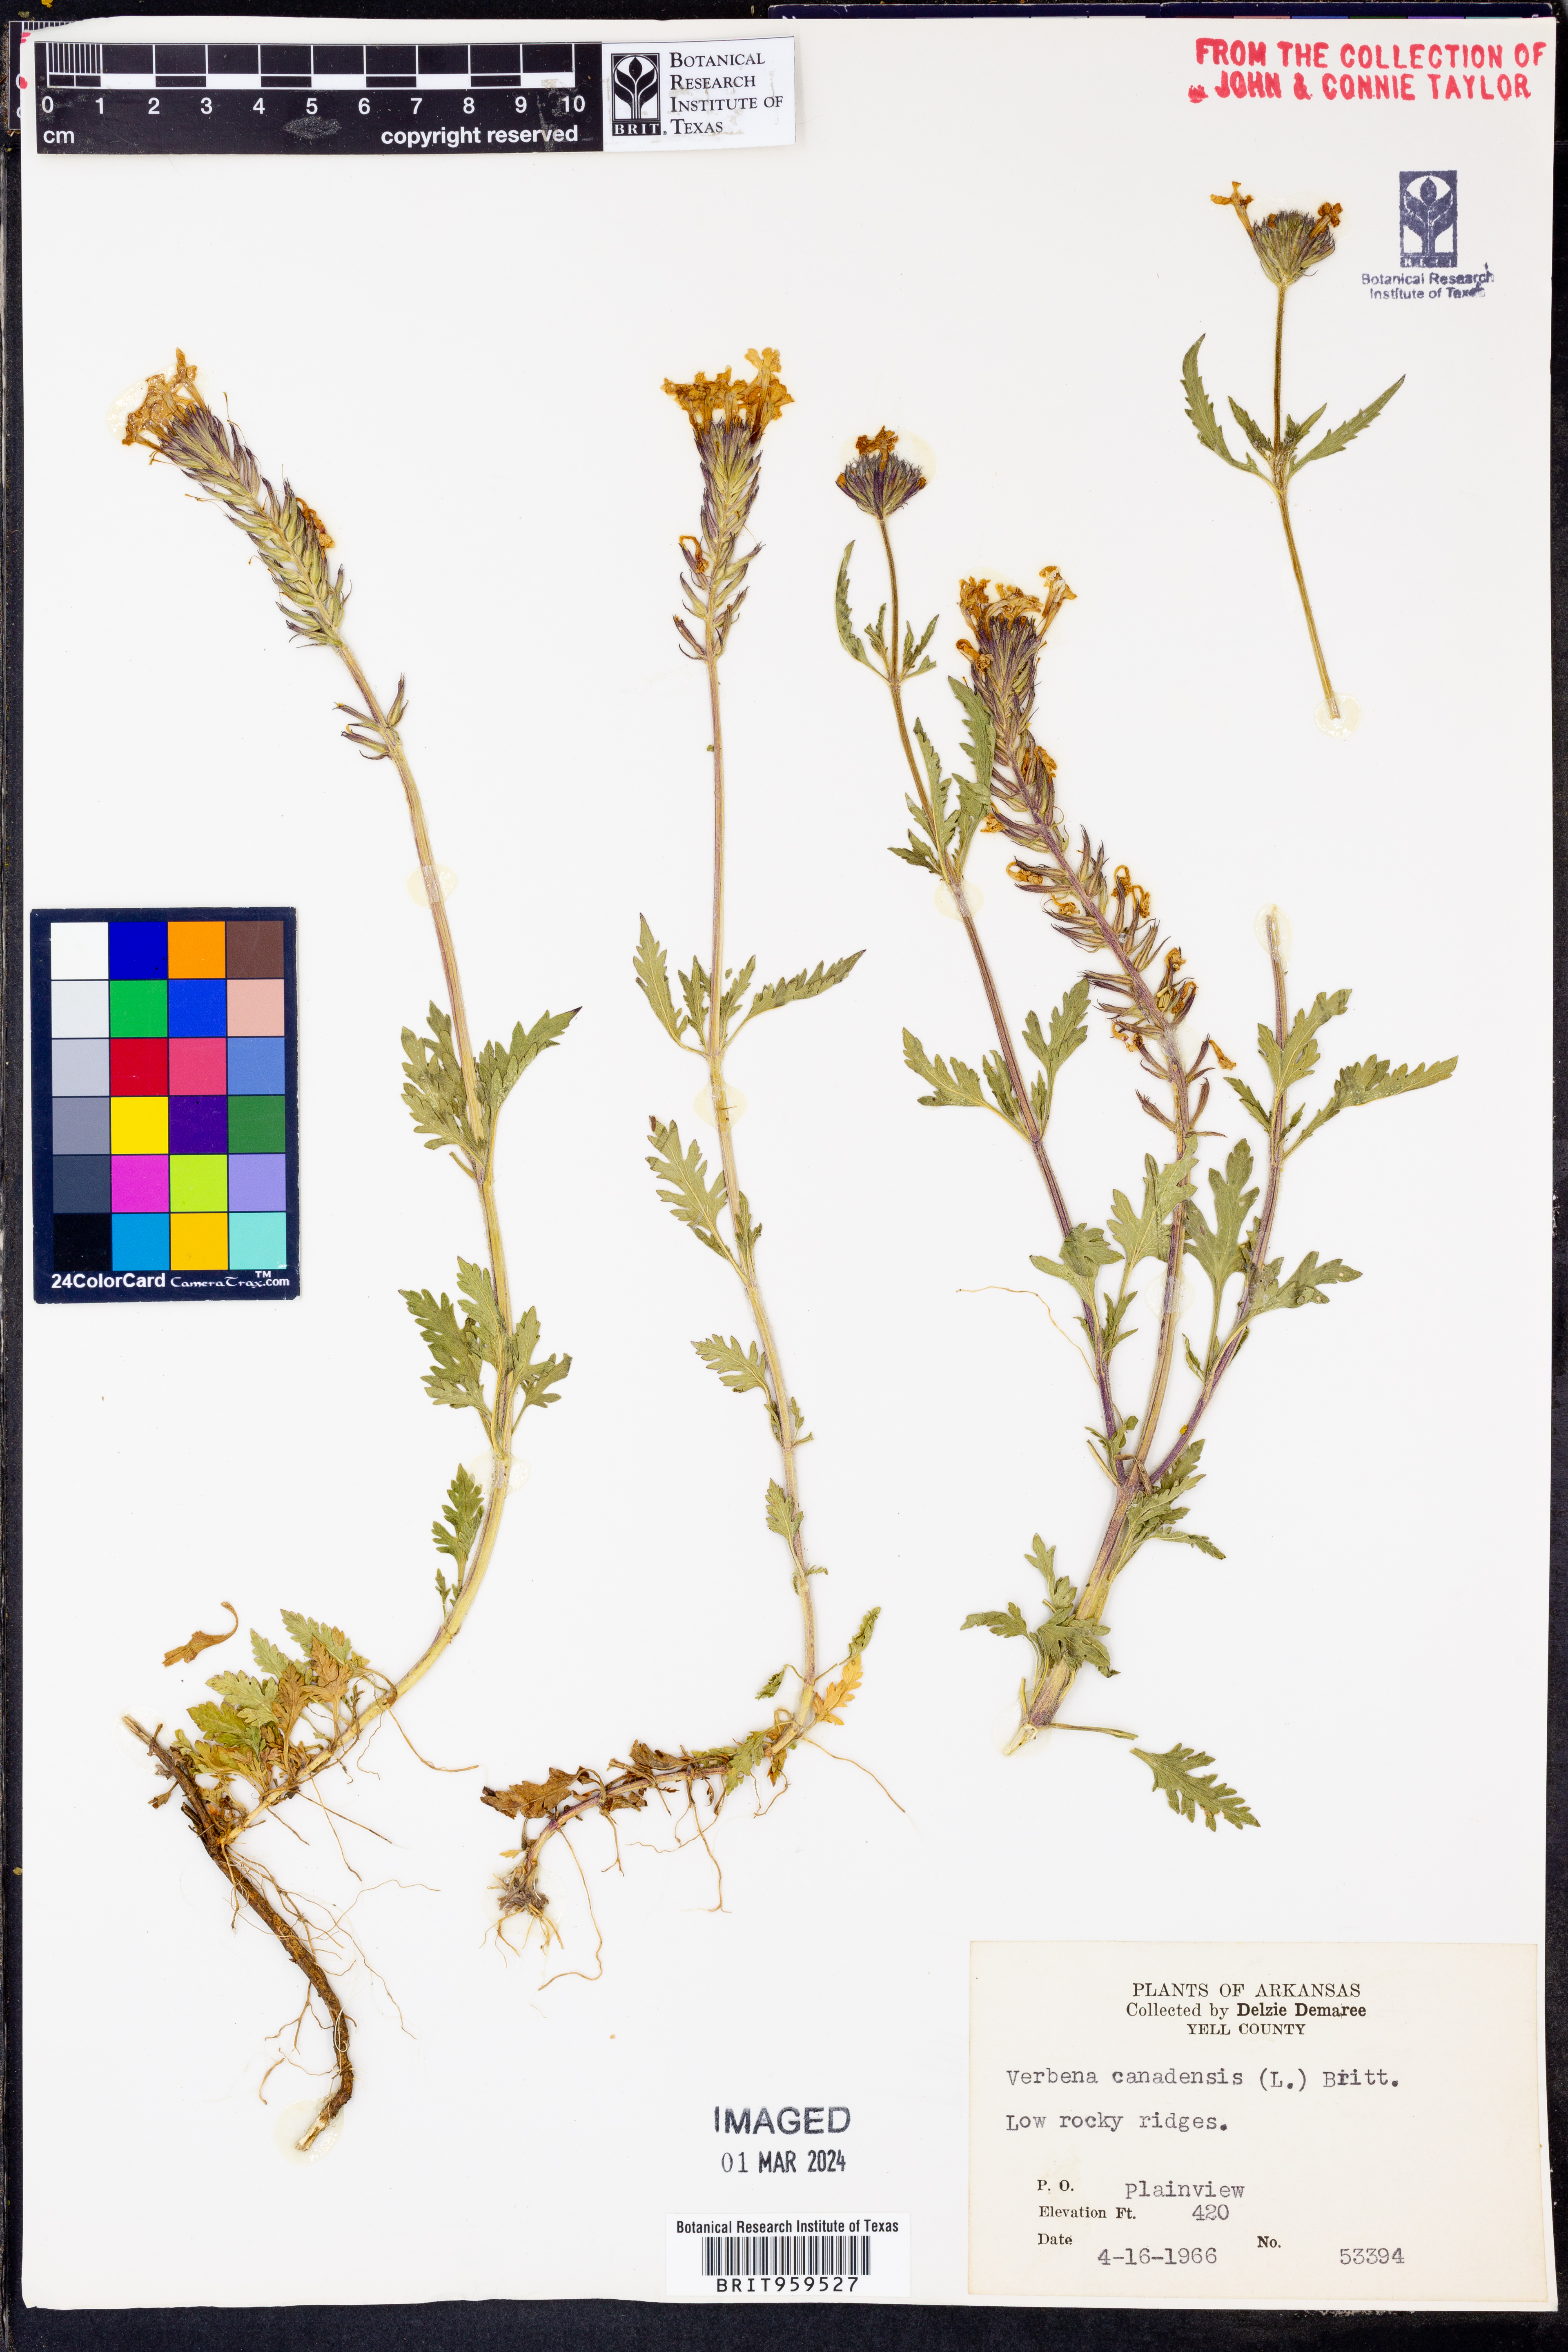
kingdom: Plantae
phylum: Tracheophyta
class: Magnoliopsida
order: Lamiales
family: Verbenaceae
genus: Verbena
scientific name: Verbena canadensis
